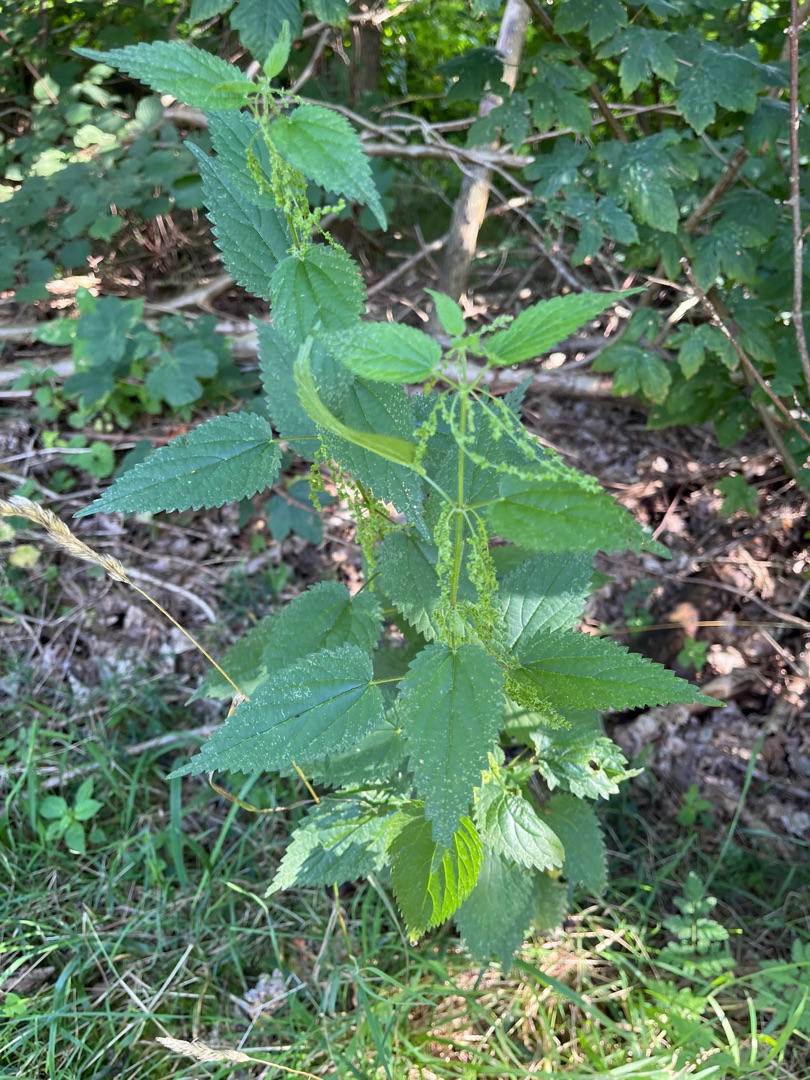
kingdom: Plantae
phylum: Tracheophyta
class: Magnoliopsida
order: Rosales
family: Urticaceae
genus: Urtica
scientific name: Urtica dioica
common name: Stor nælde
